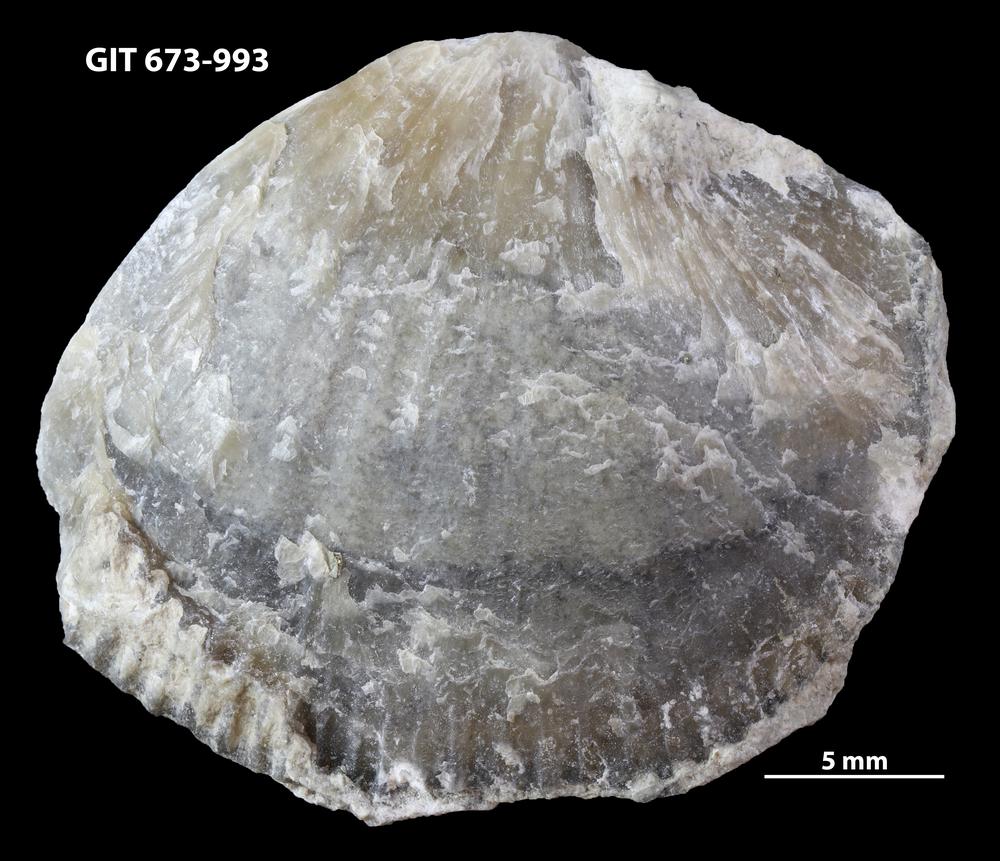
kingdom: Animalia
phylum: Brachiopoda
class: Rhynchonellata
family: Hesperorthidae
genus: Boreadorthis
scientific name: Boreadorthis
